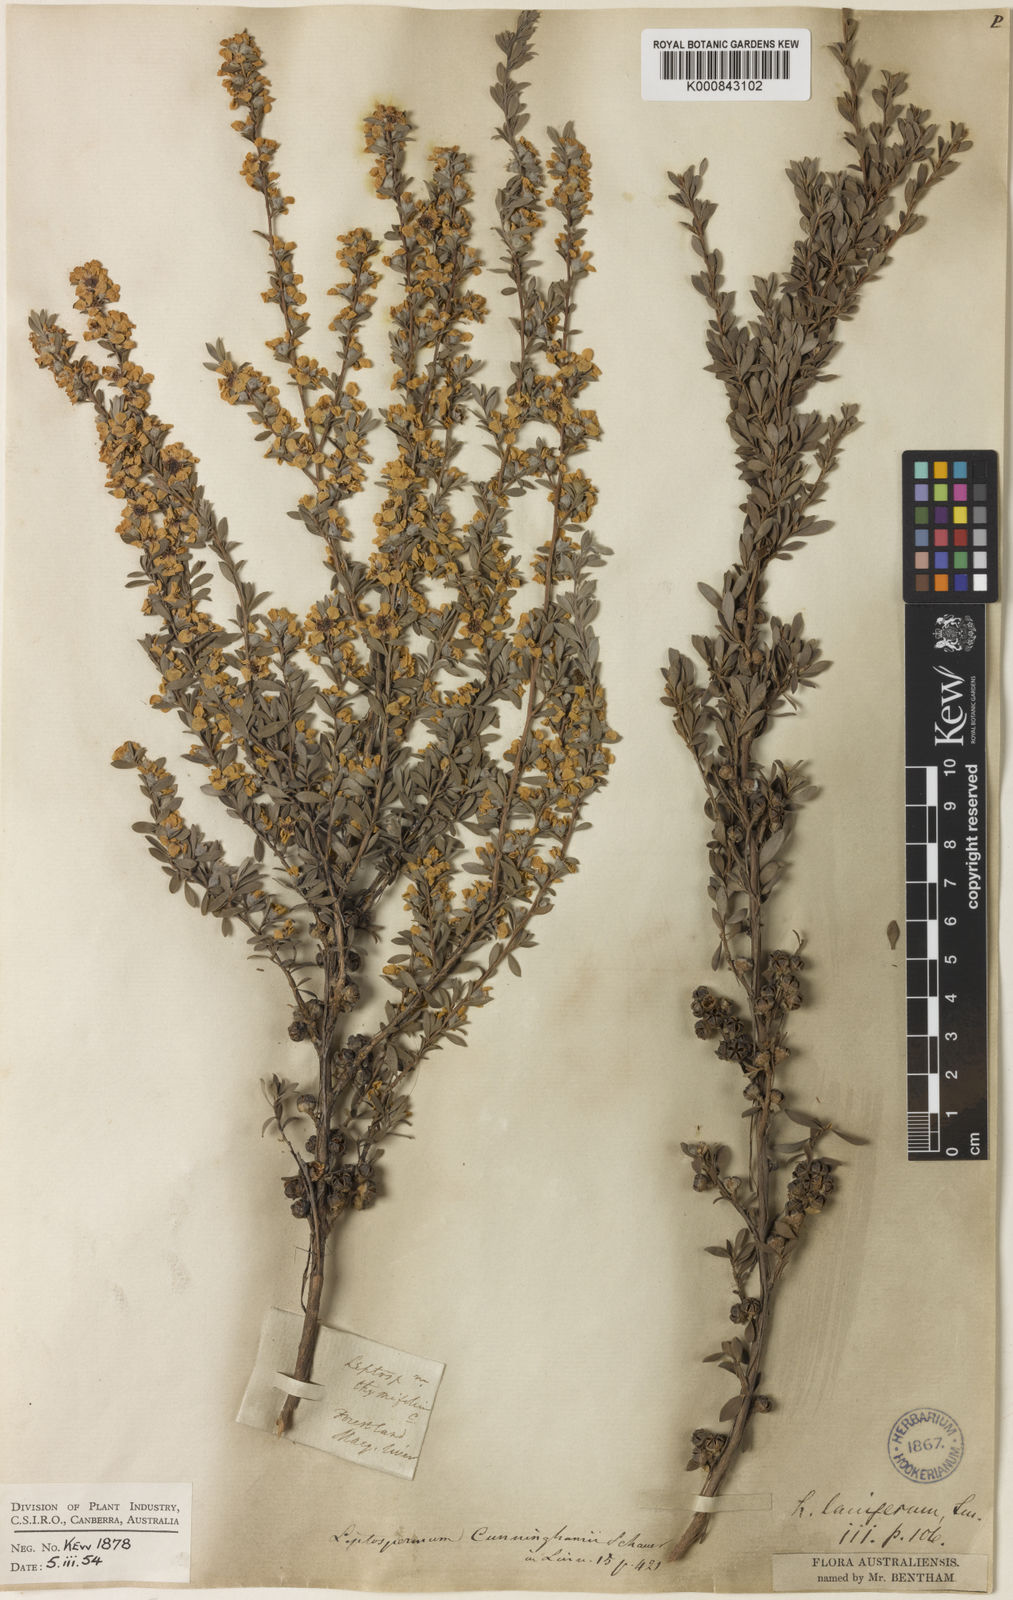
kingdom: Plantae
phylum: Tracheophyta
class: Magnoliopsida
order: Myrtales
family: Myrtaceae
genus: Leptospermum
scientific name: Leptospermum myrtifolium
